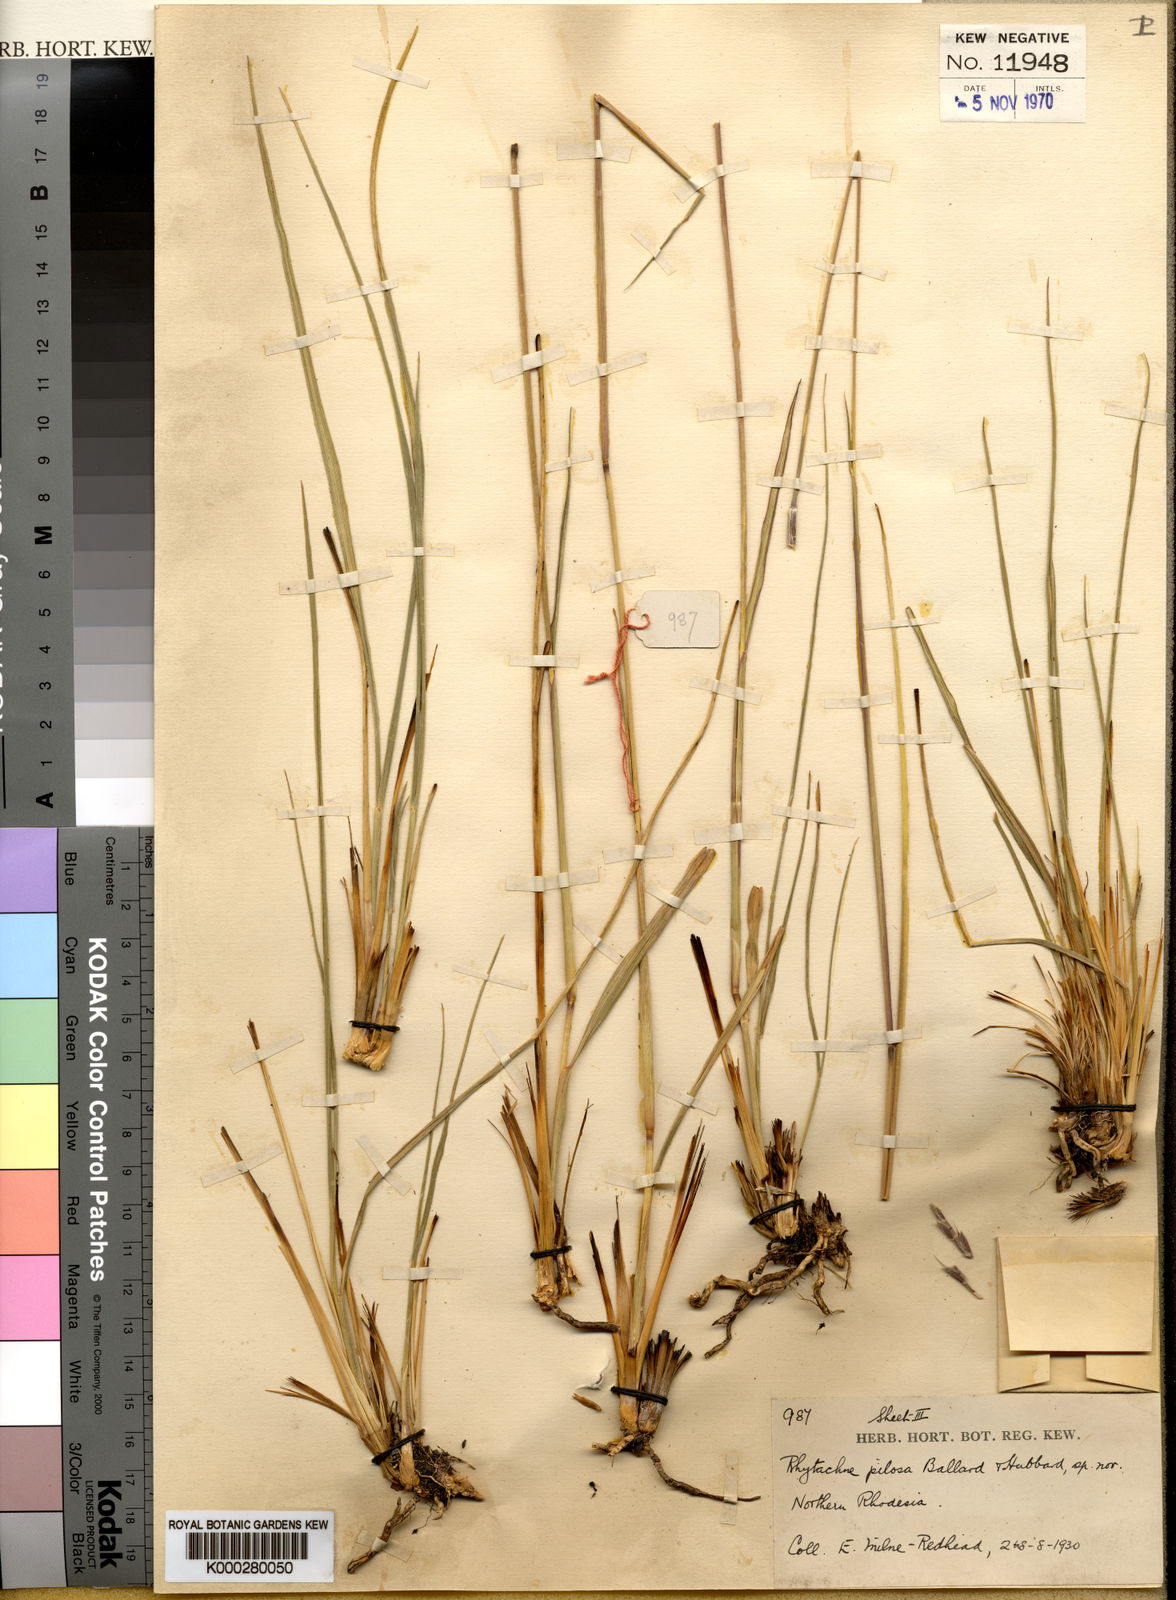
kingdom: Plantae
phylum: Tracheophyta
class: Liliopsida
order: Poales
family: Poaceae
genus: Loxodera
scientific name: Loxodera bovonei
